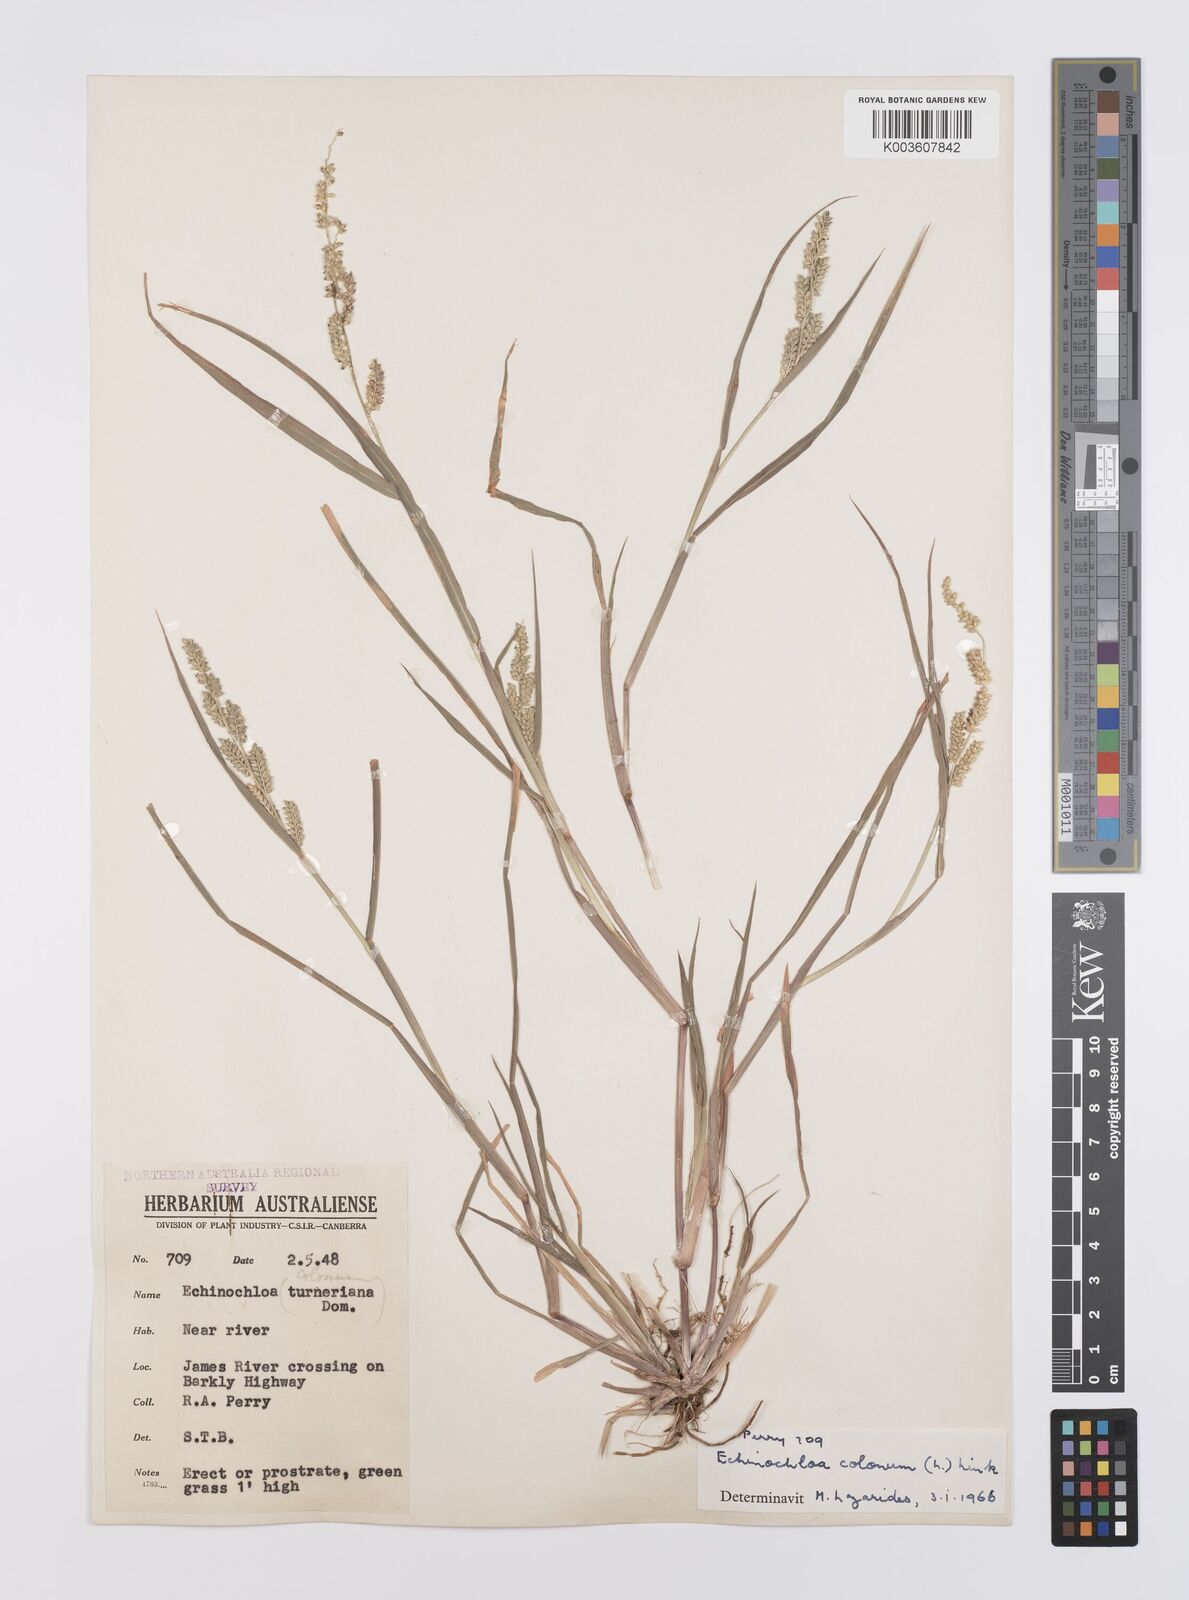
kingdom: Plantae
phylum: Tracheophyta
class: Liliopsida
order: Poales
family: Poaceae
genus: Echinochloa
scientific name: Echinochloa colonum
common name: Jungle rice
